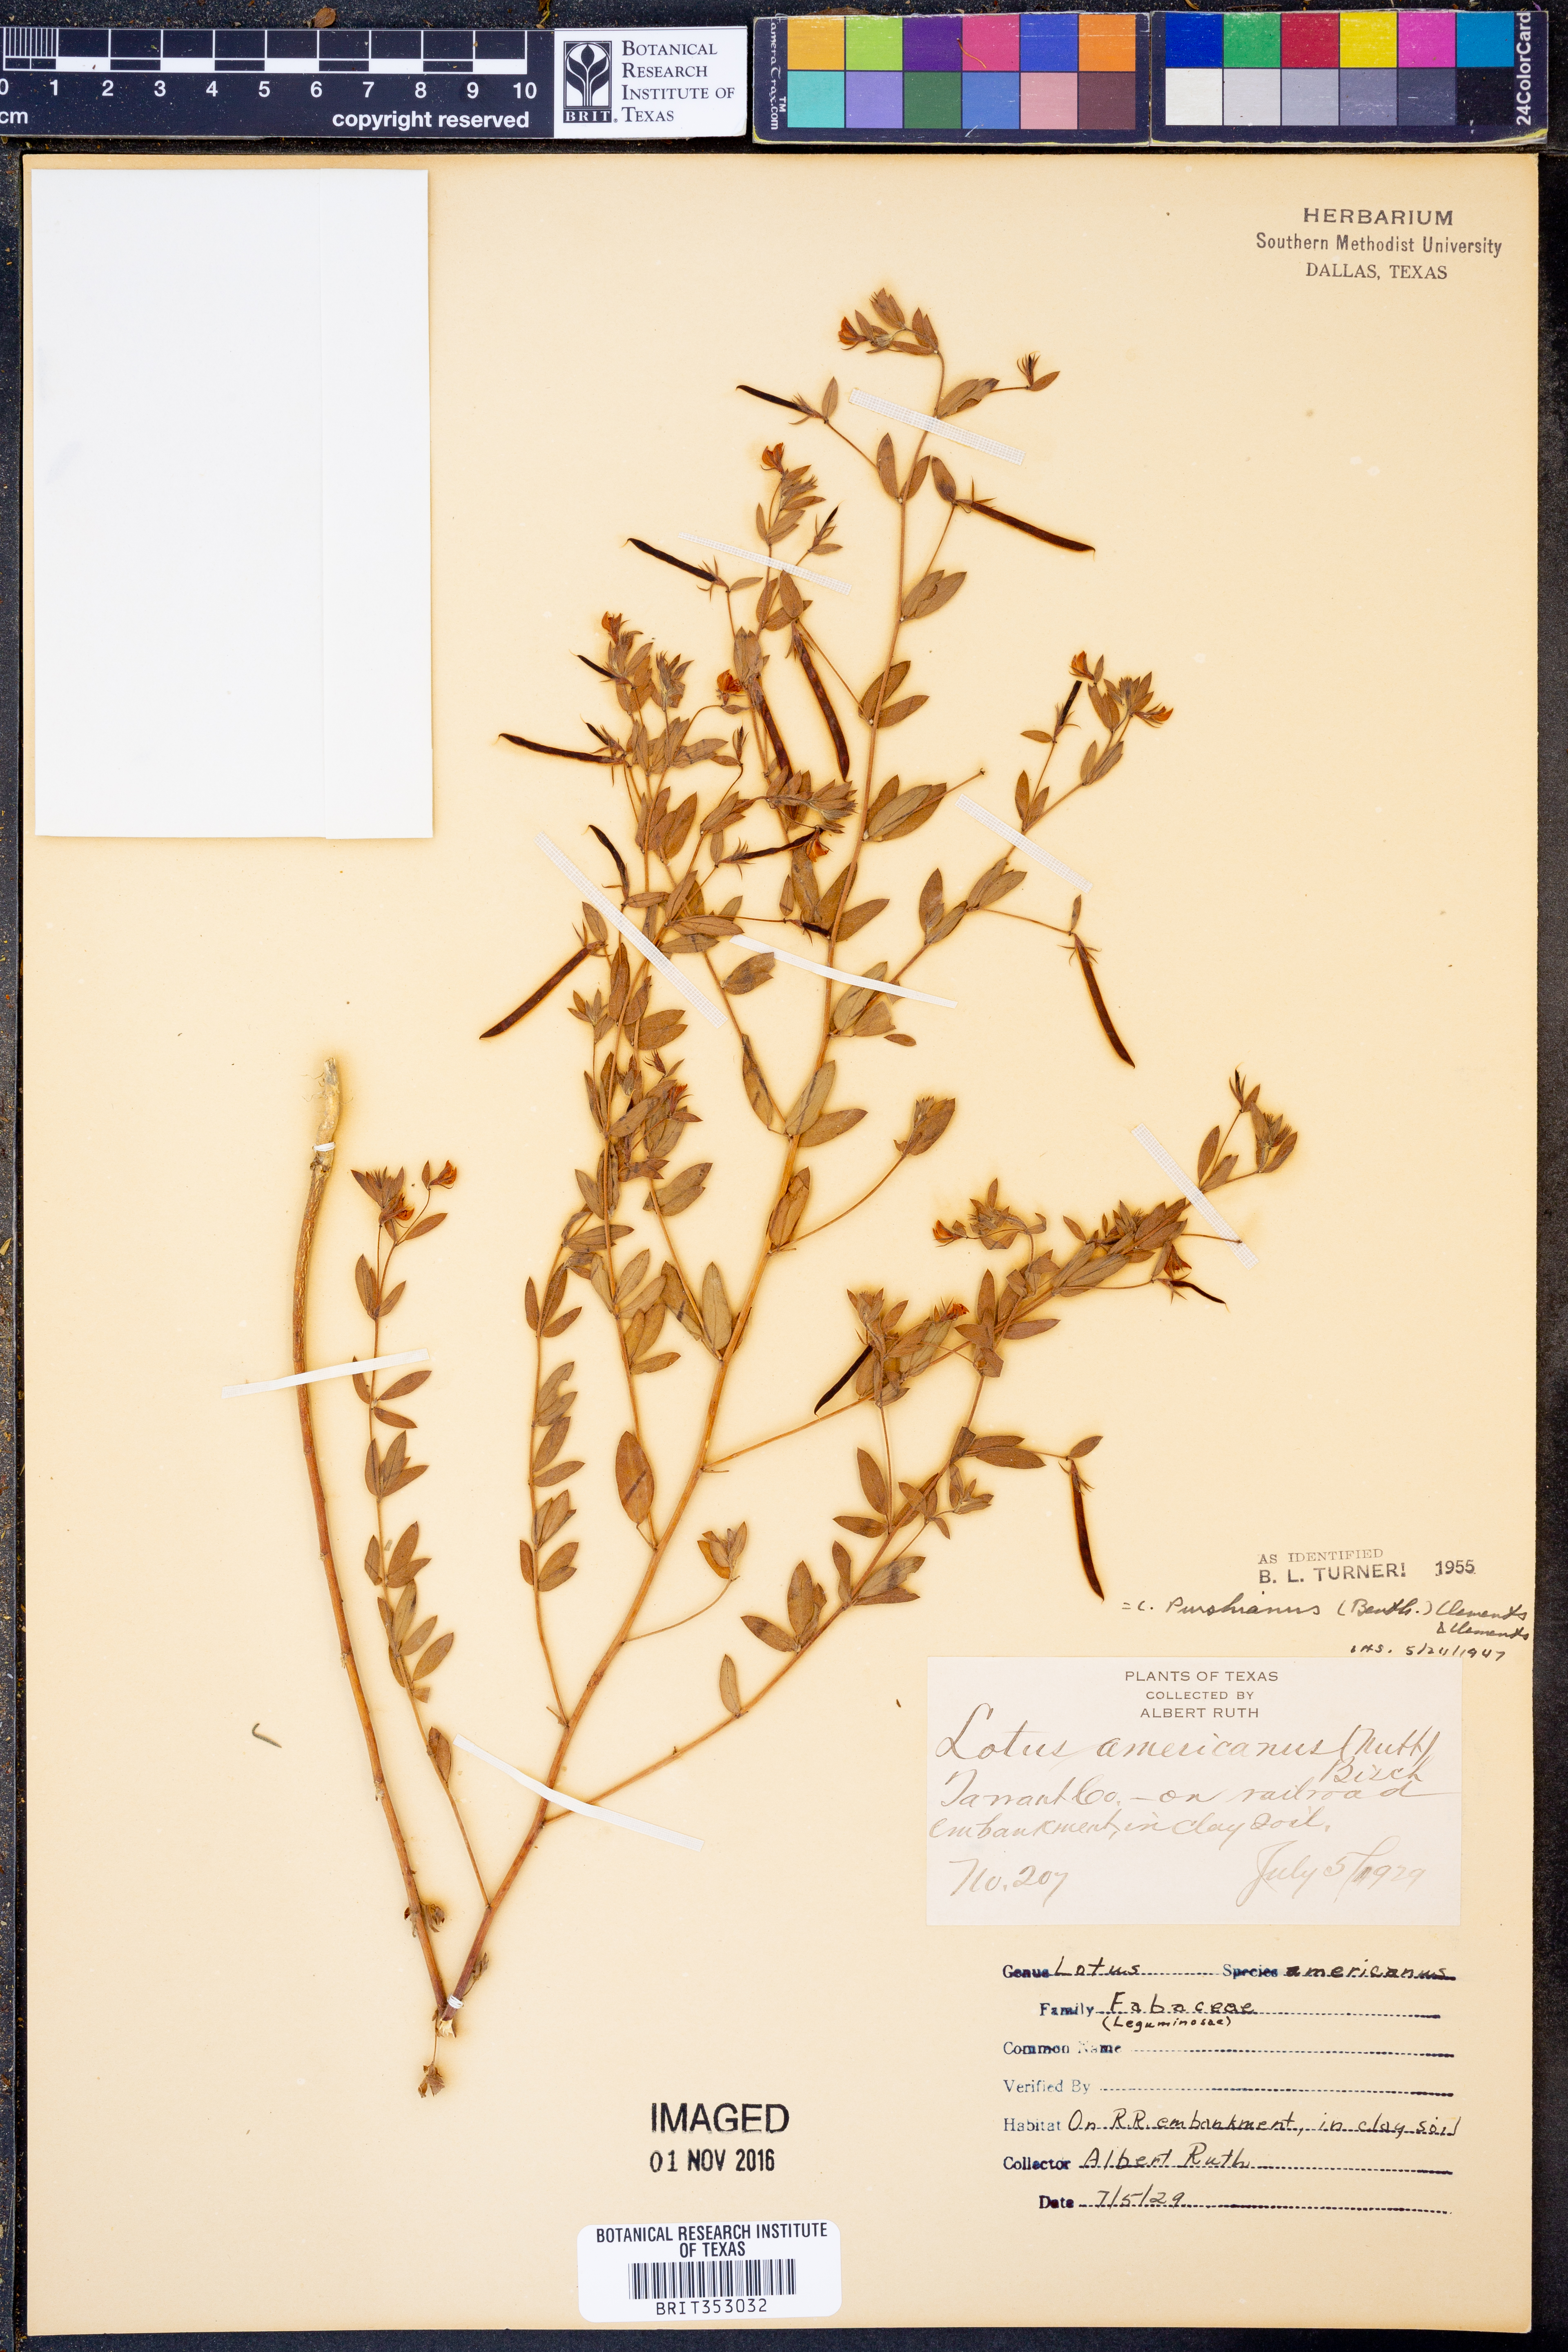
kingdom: Plantae
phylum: Tracheophyta
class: Magnoliopsida
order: Fabales
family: Fabaceae
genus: Acmispon
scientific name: Acmispon americanus
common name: American bird's-foot trefoil
